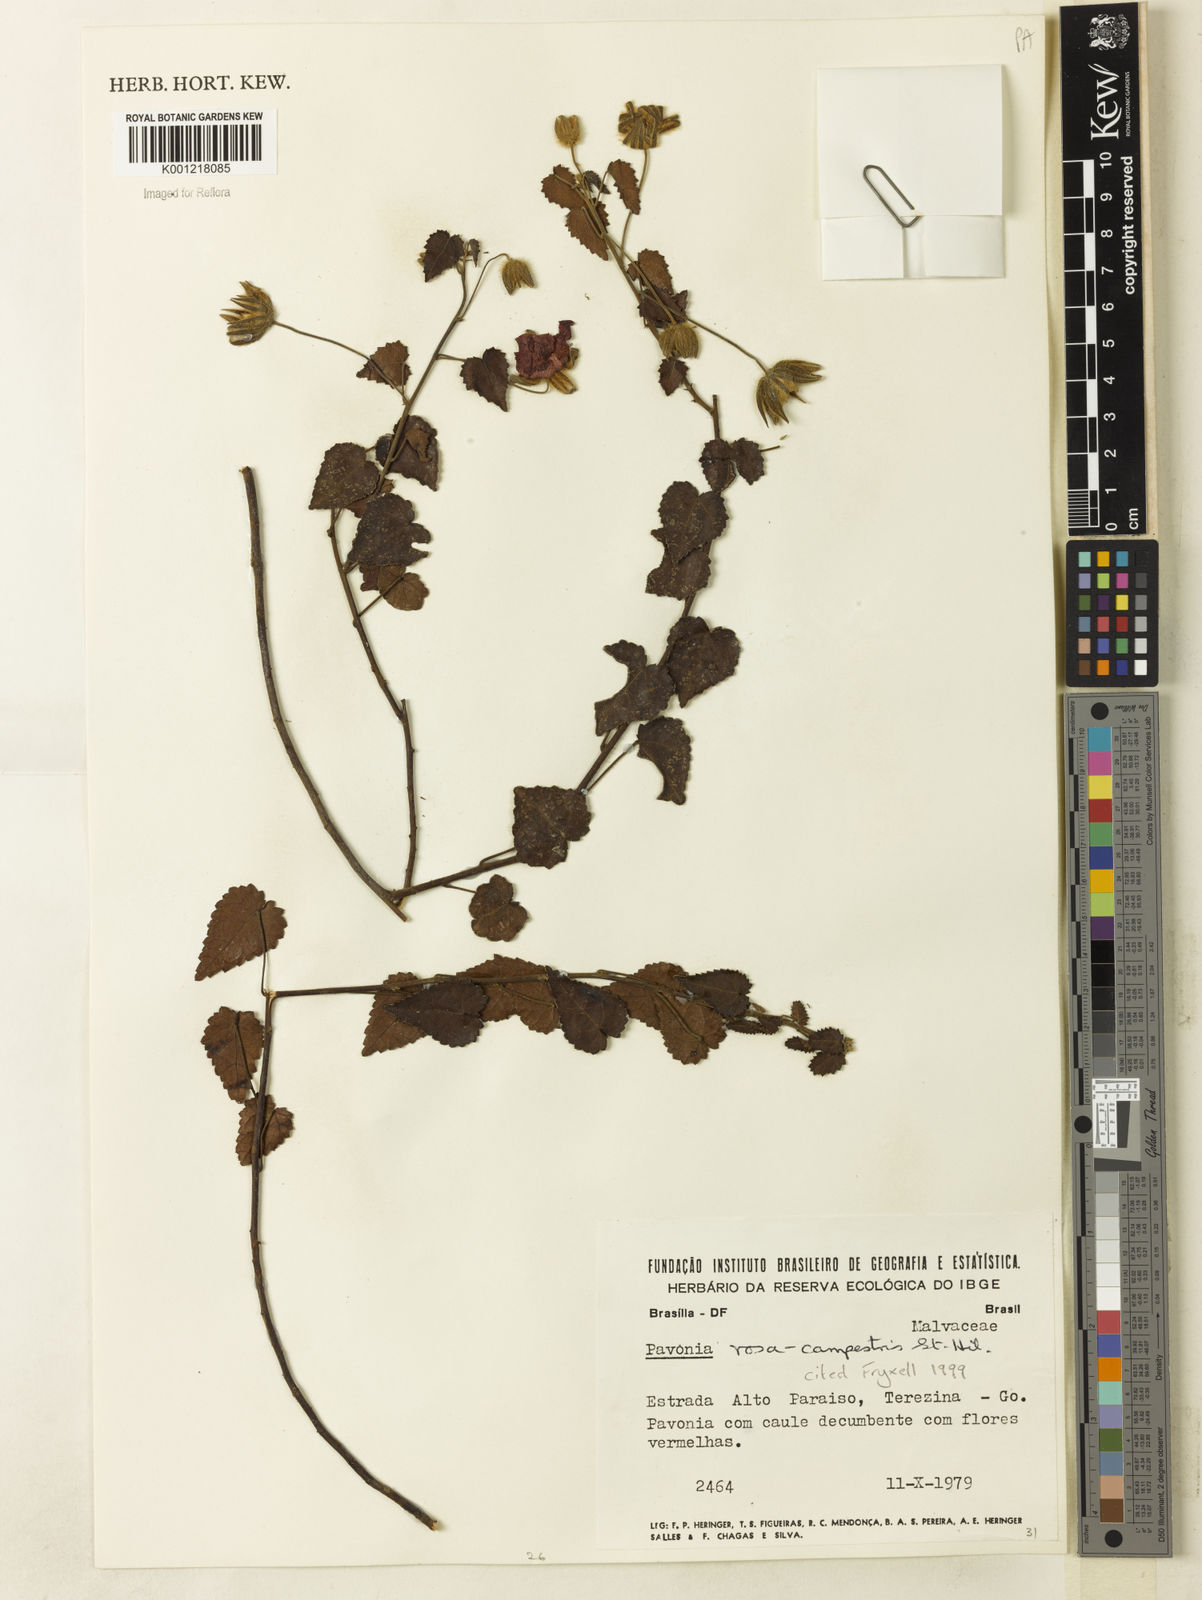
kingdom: Plantae
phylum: Tracheophyta
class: Magnoliopsida
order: Malvales
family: Malvaceae
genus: Pavonia
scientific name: Pavonia rosa-campestris
